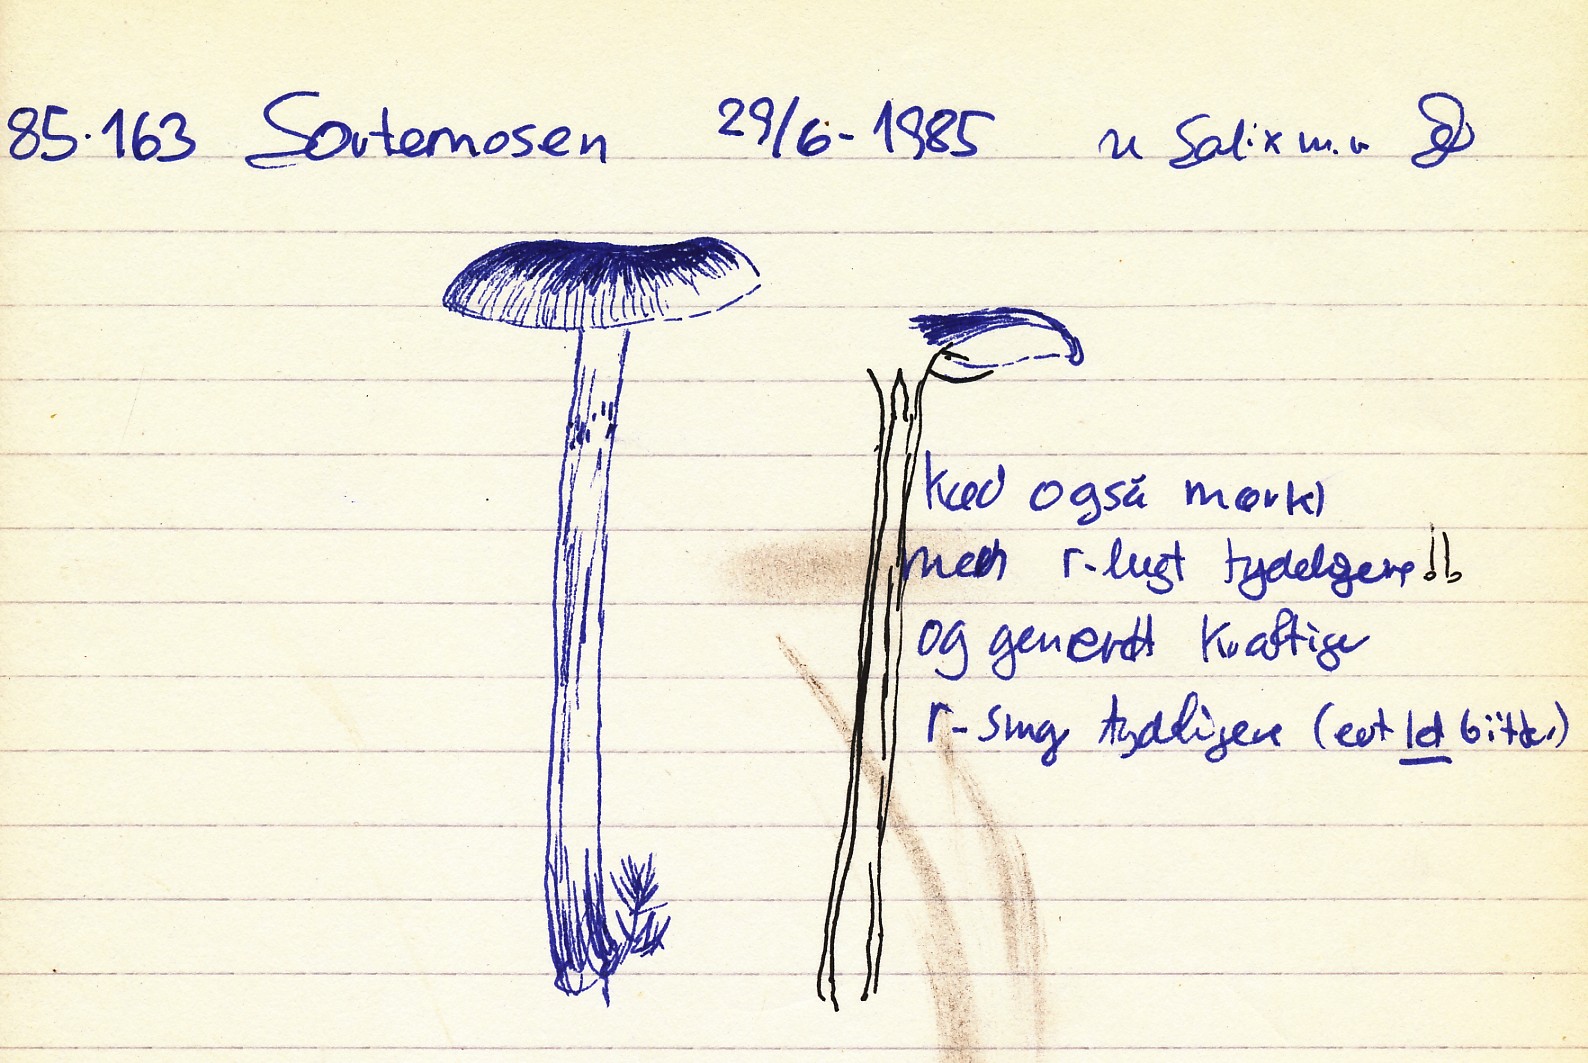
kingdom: Fungi
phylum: Basidiomycota
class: Agaricomycetes
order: Agaricales
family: Hymenogastraceae
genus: Hebeloma
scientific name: Hebeloma nigellum
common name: sortbrun tåreblad
